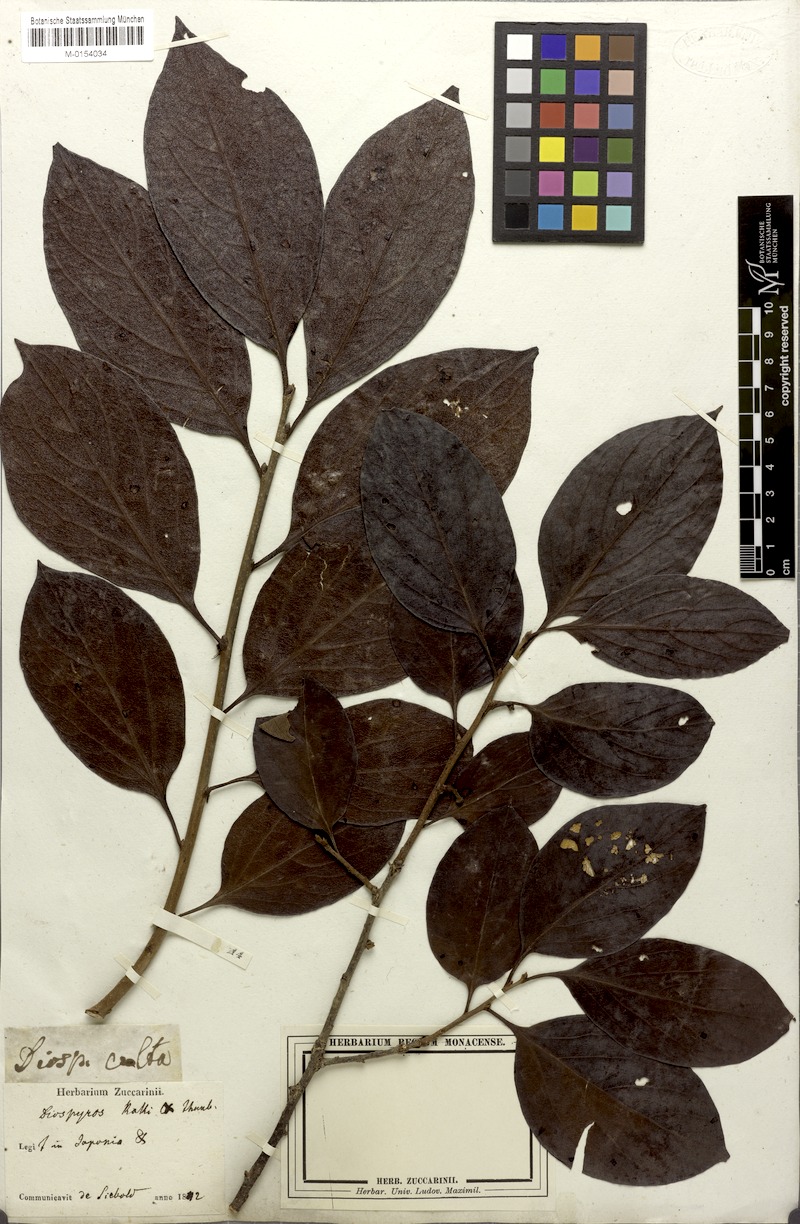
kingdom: Plantae
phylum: Tracheophyta
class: Magnoliopsida
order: Ericales
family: Ebenaceae
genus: Diospyros
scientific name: Diospyros kaki
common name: Persimmon
